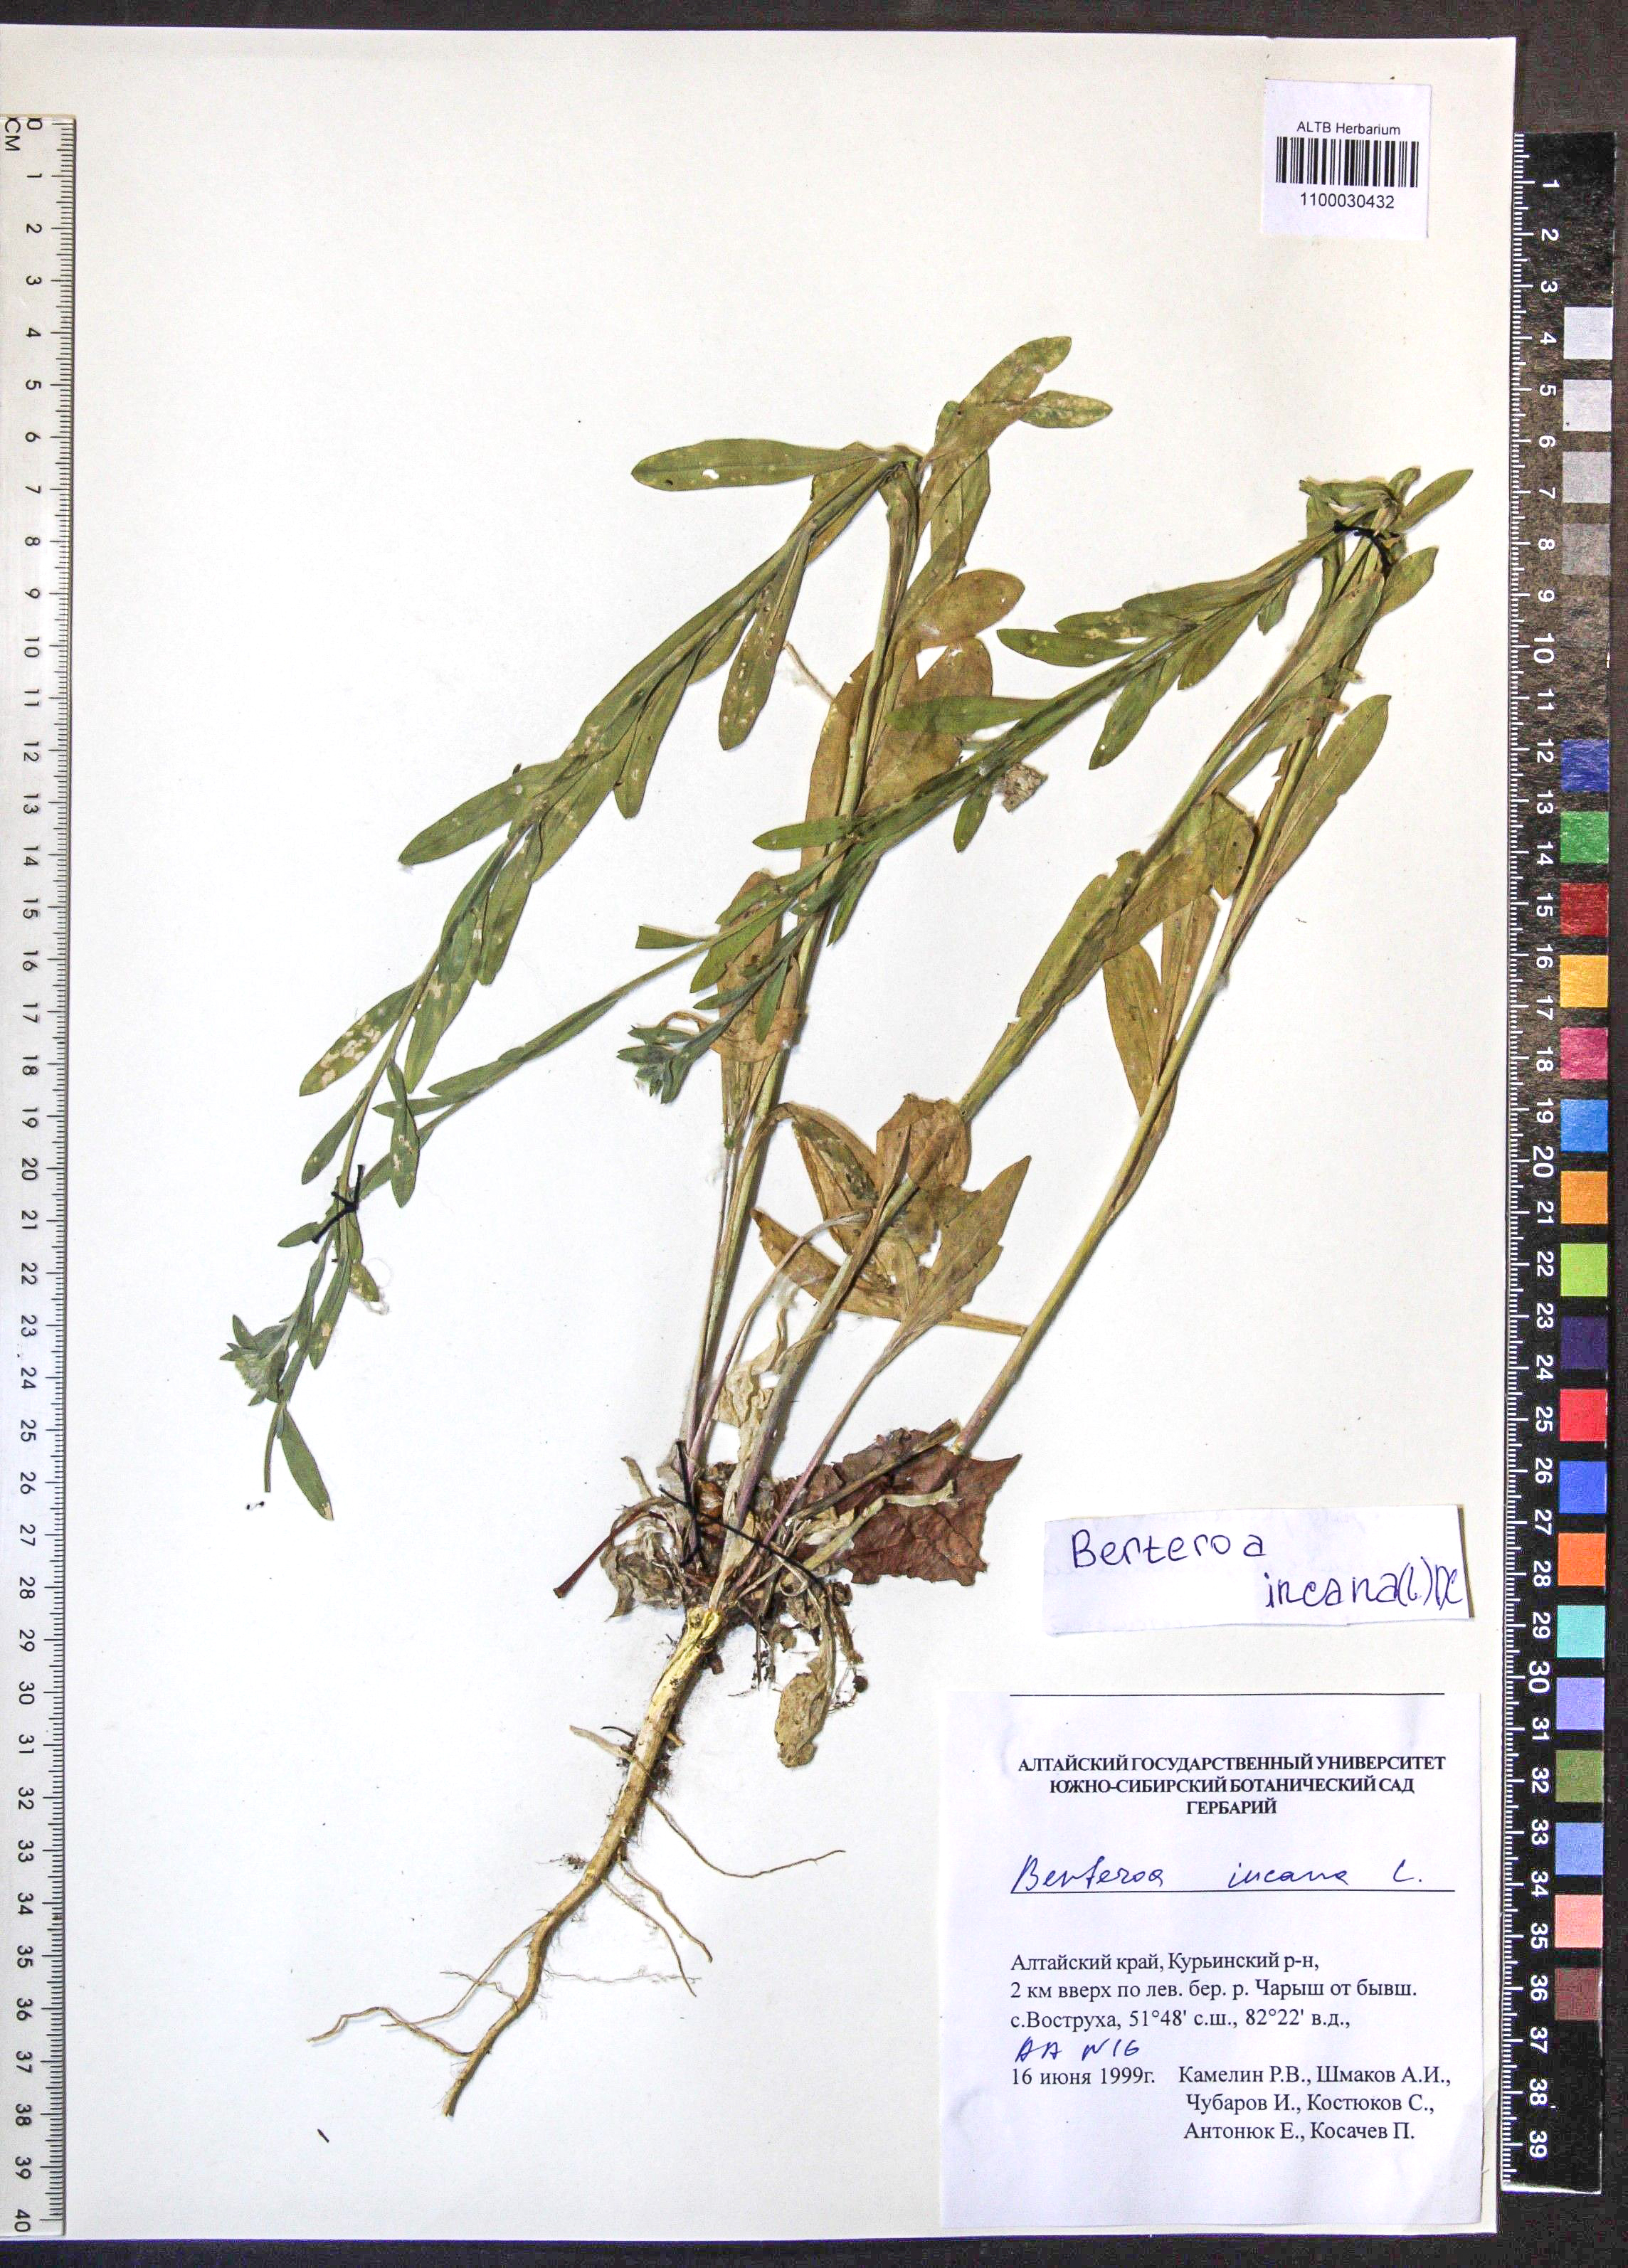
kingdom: Plantae
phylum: Tracheophyta
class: Magnoliopsida
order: Brassicales
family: Brassicaceae
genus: Berteroa
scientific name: Berteroa incana
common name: Hoary alison
